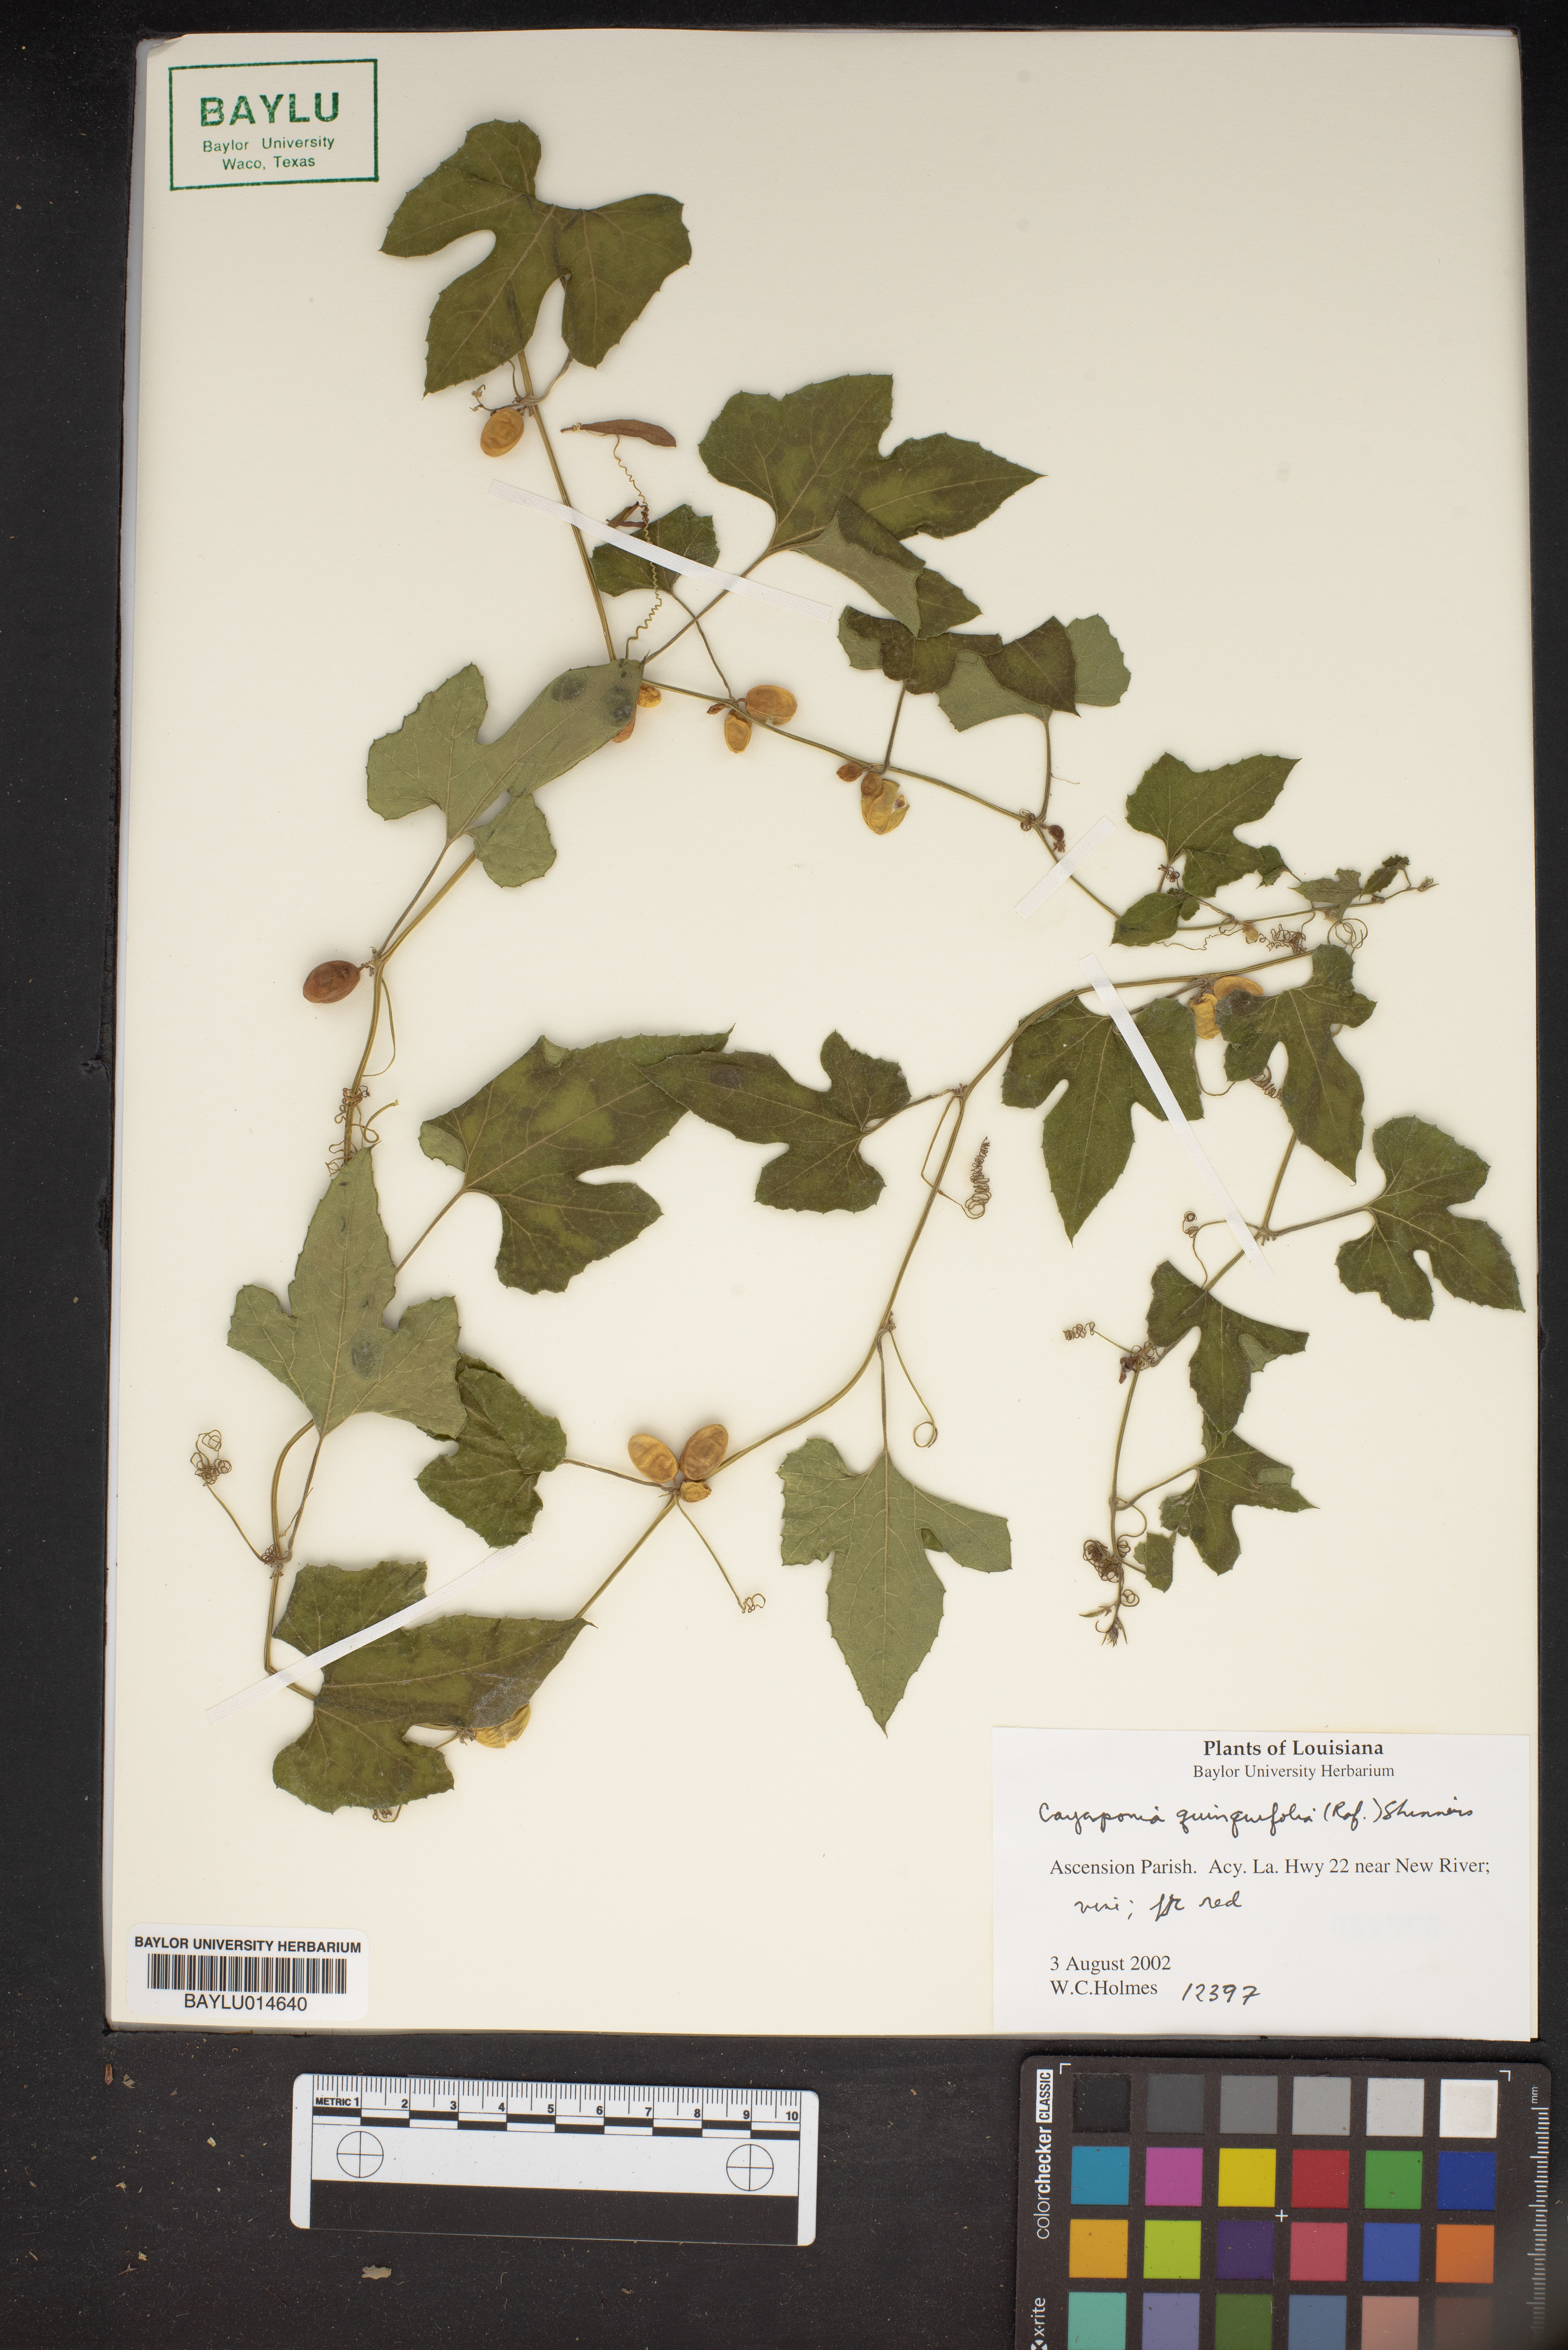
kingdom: Plantae
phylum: Tracheophyta
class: Magnoliopsida
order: Cucurbitales
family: Cucurbitaceae
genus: Cayaponia
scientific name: Cayaponia
